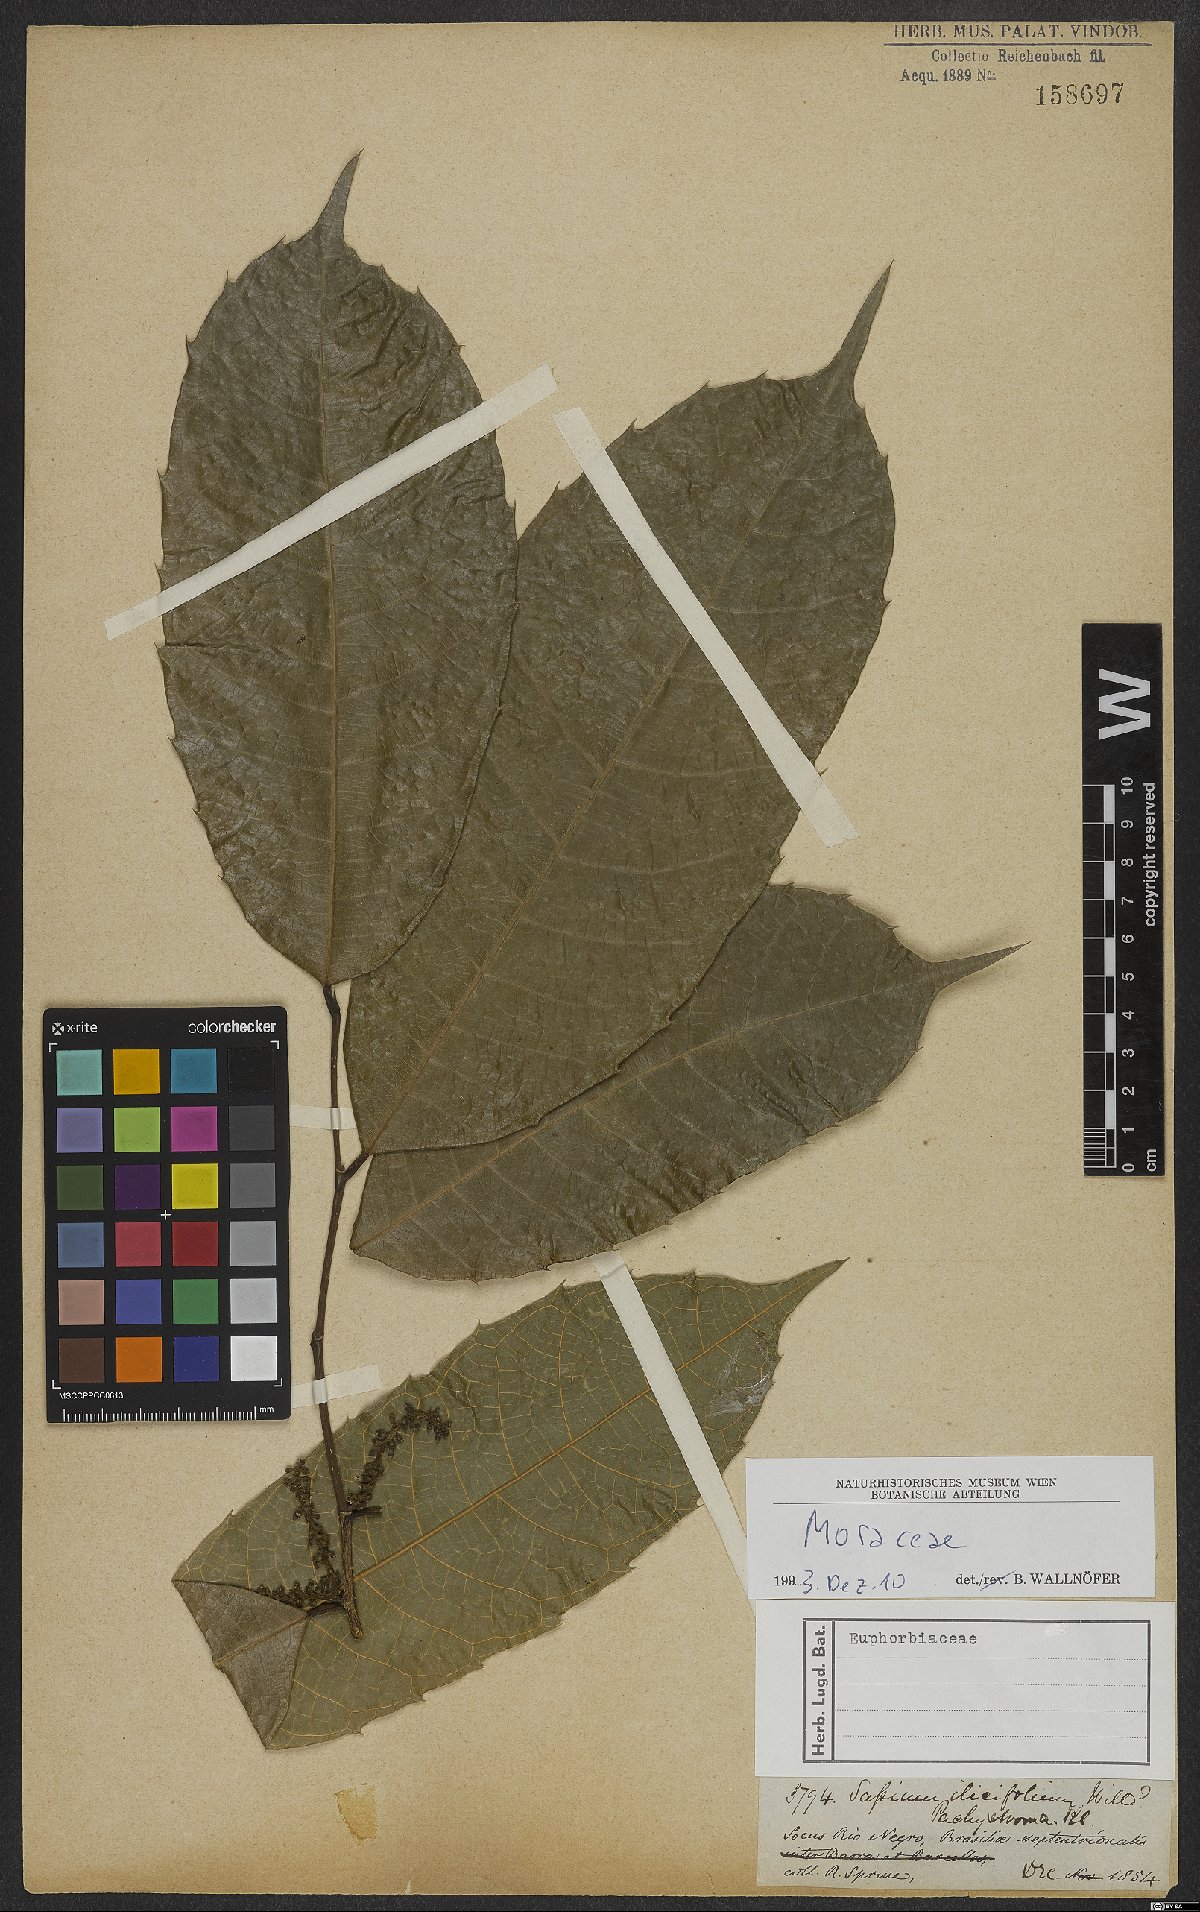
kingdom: Plantae
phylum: Tracheophyta
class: Magnoliopsida
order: Rosales
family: Moraceae
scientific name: Moraceae
